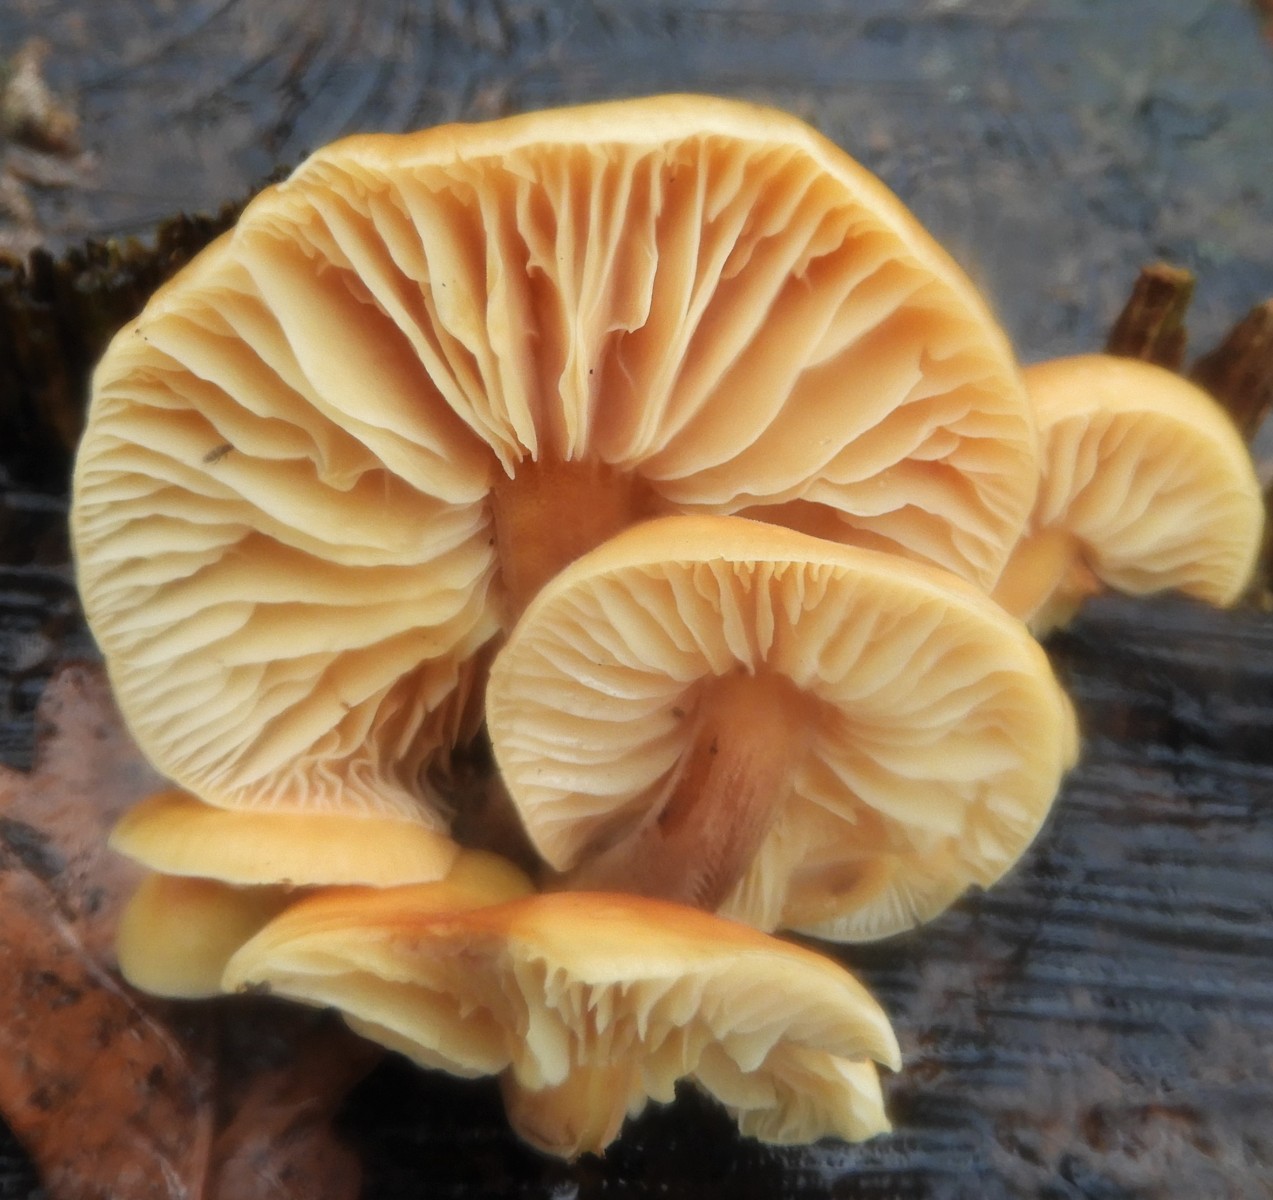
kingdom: Fungi
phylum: Basidiomycota
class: Agaricomycetes
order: Agaricales
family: Physalacriaceae
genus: Flammulina
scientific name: Flammulina velutipes
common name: gul fløjlsfod
